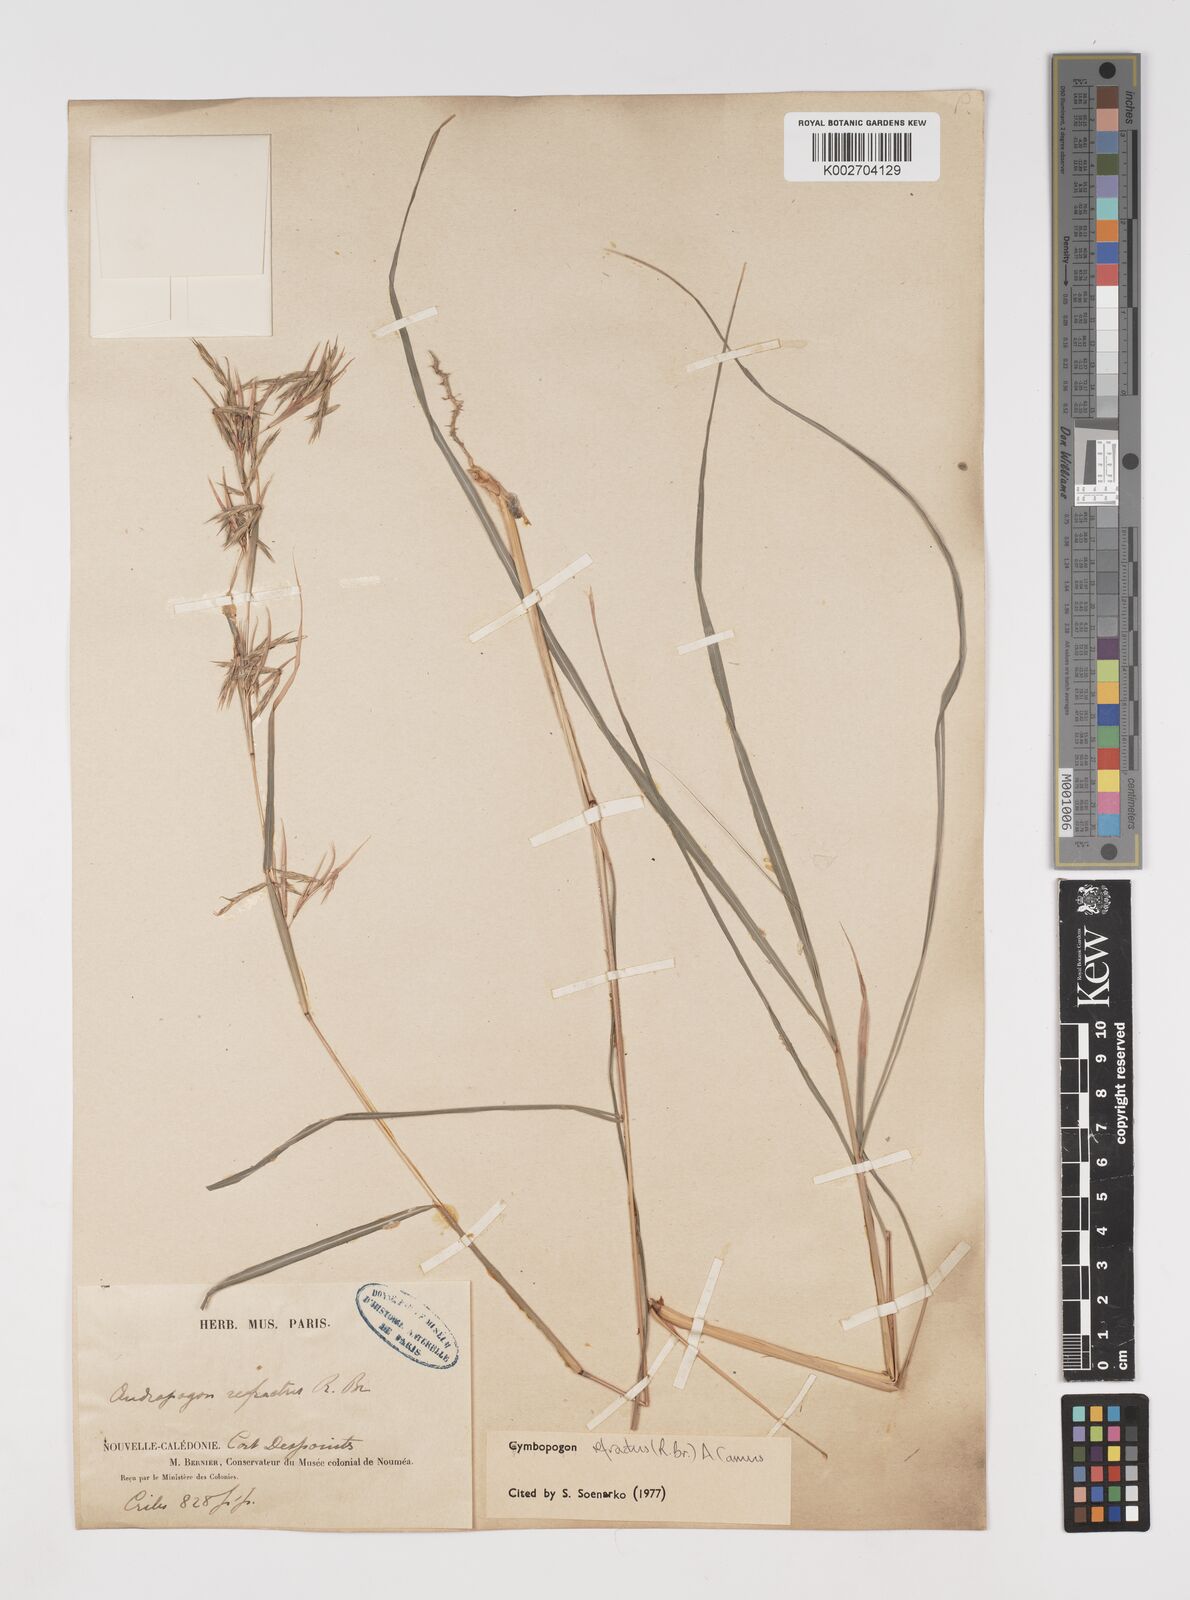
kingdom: Plantae
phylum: Tracheophyta
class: Liliopsida
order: Poales
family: Poaceae
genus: Cymbopogon
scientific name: Cymbopogon refractus
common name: Barbwire grass
